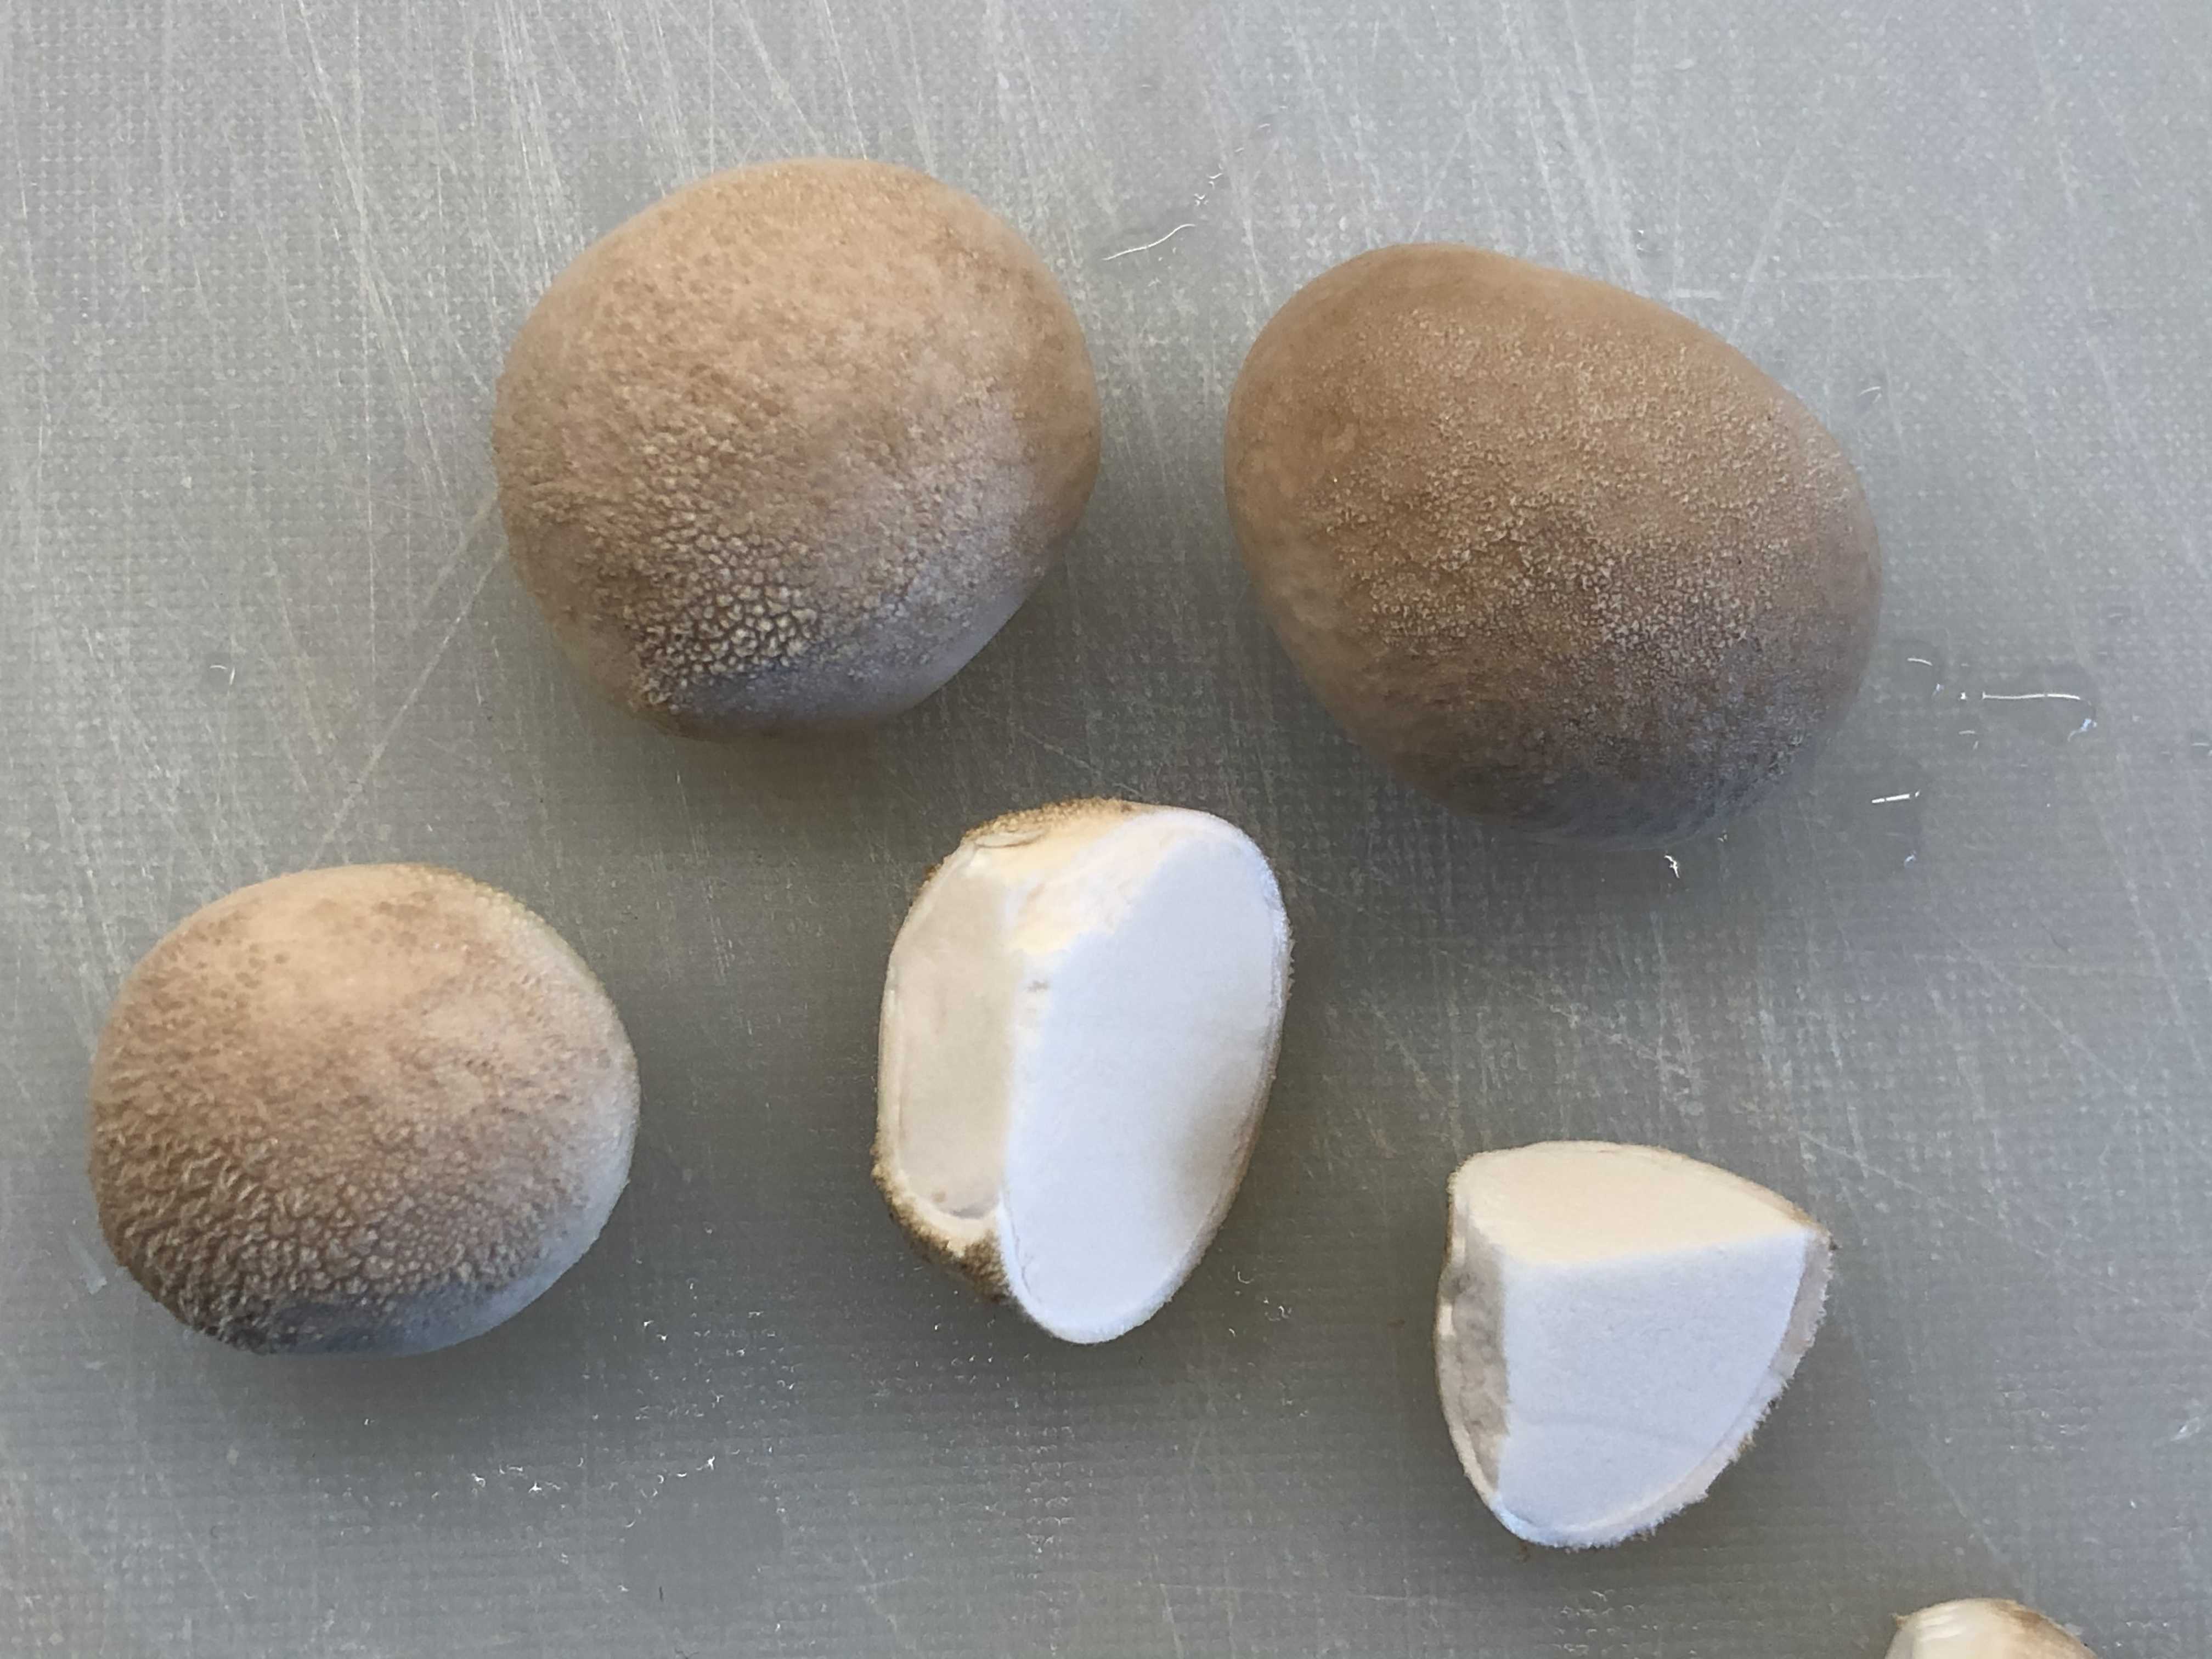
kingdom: Fungi
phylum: Basidiomycota
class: Agaricomycetes
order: Agaricales
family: Agaricaceae
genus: Lycoperdon
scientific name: Lycoperdon
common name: støvbold
